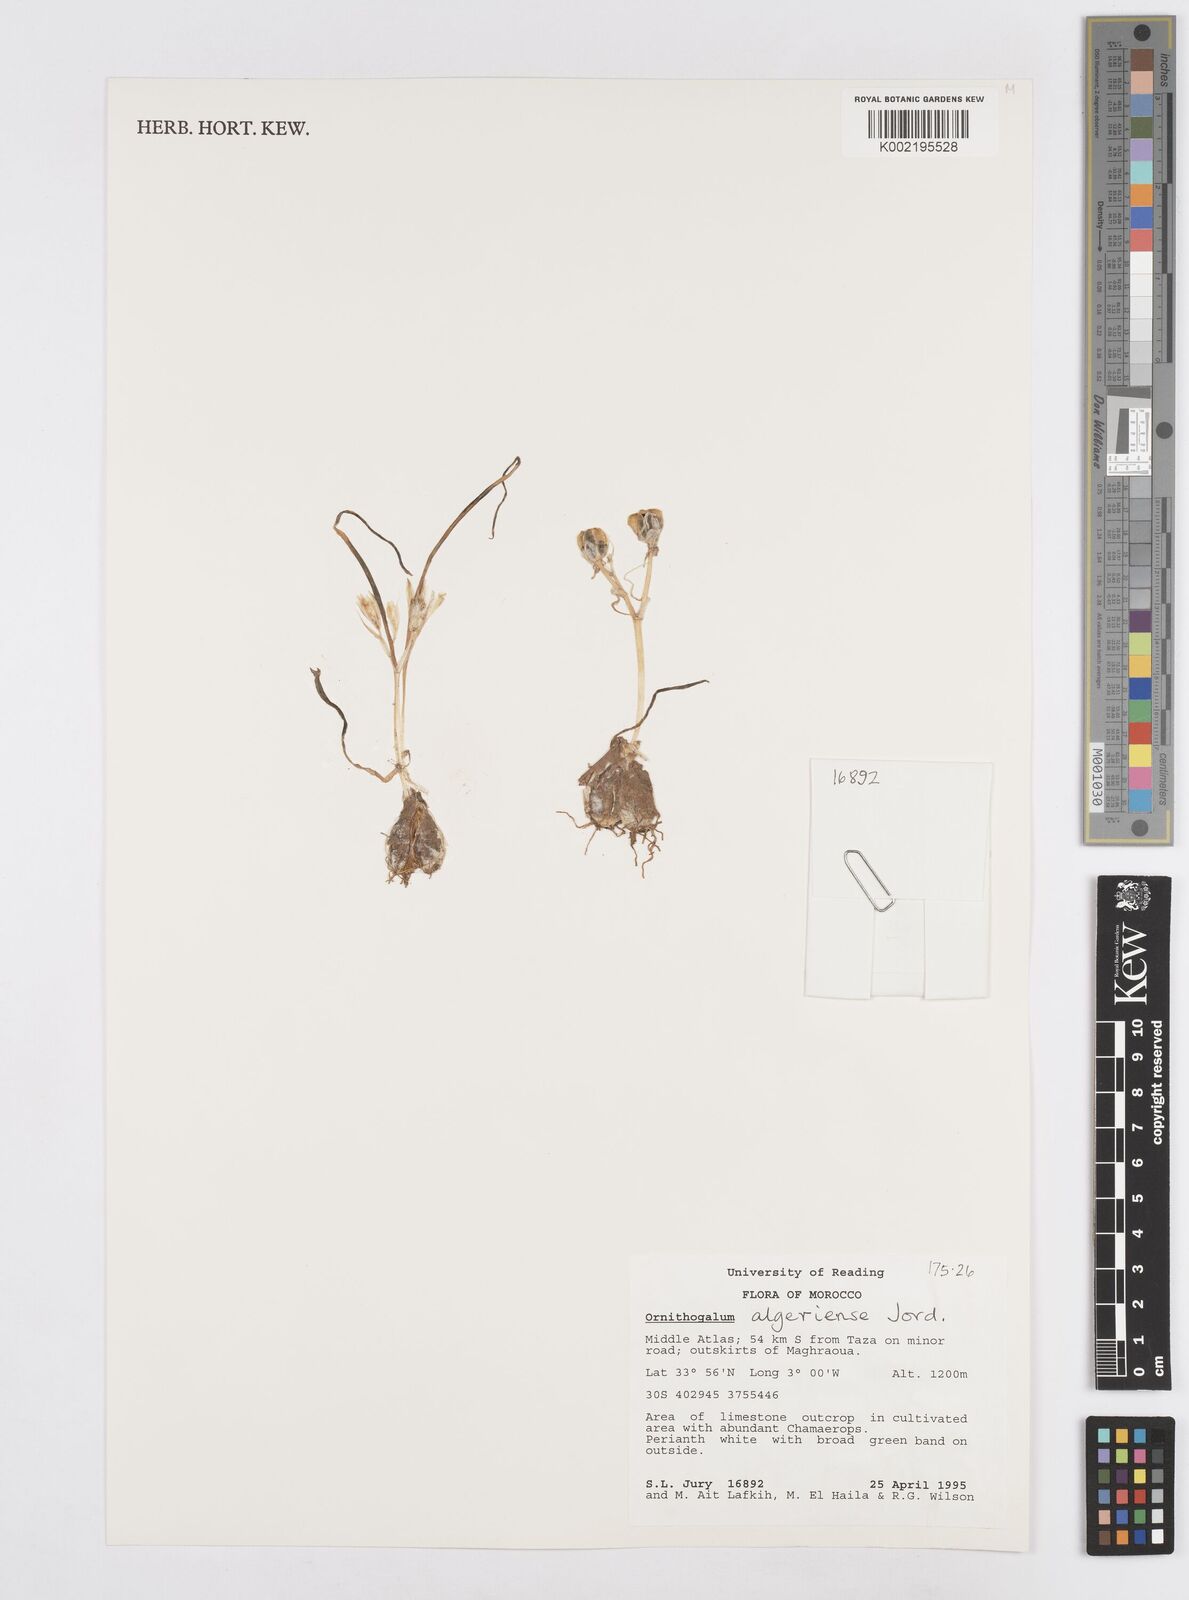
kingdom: Plantae
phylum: Tracheophyta
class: Liliopsida
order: Asparagales
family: Asparagaceae
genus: Ornithogalum
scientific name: Ornithogalum baeticum
